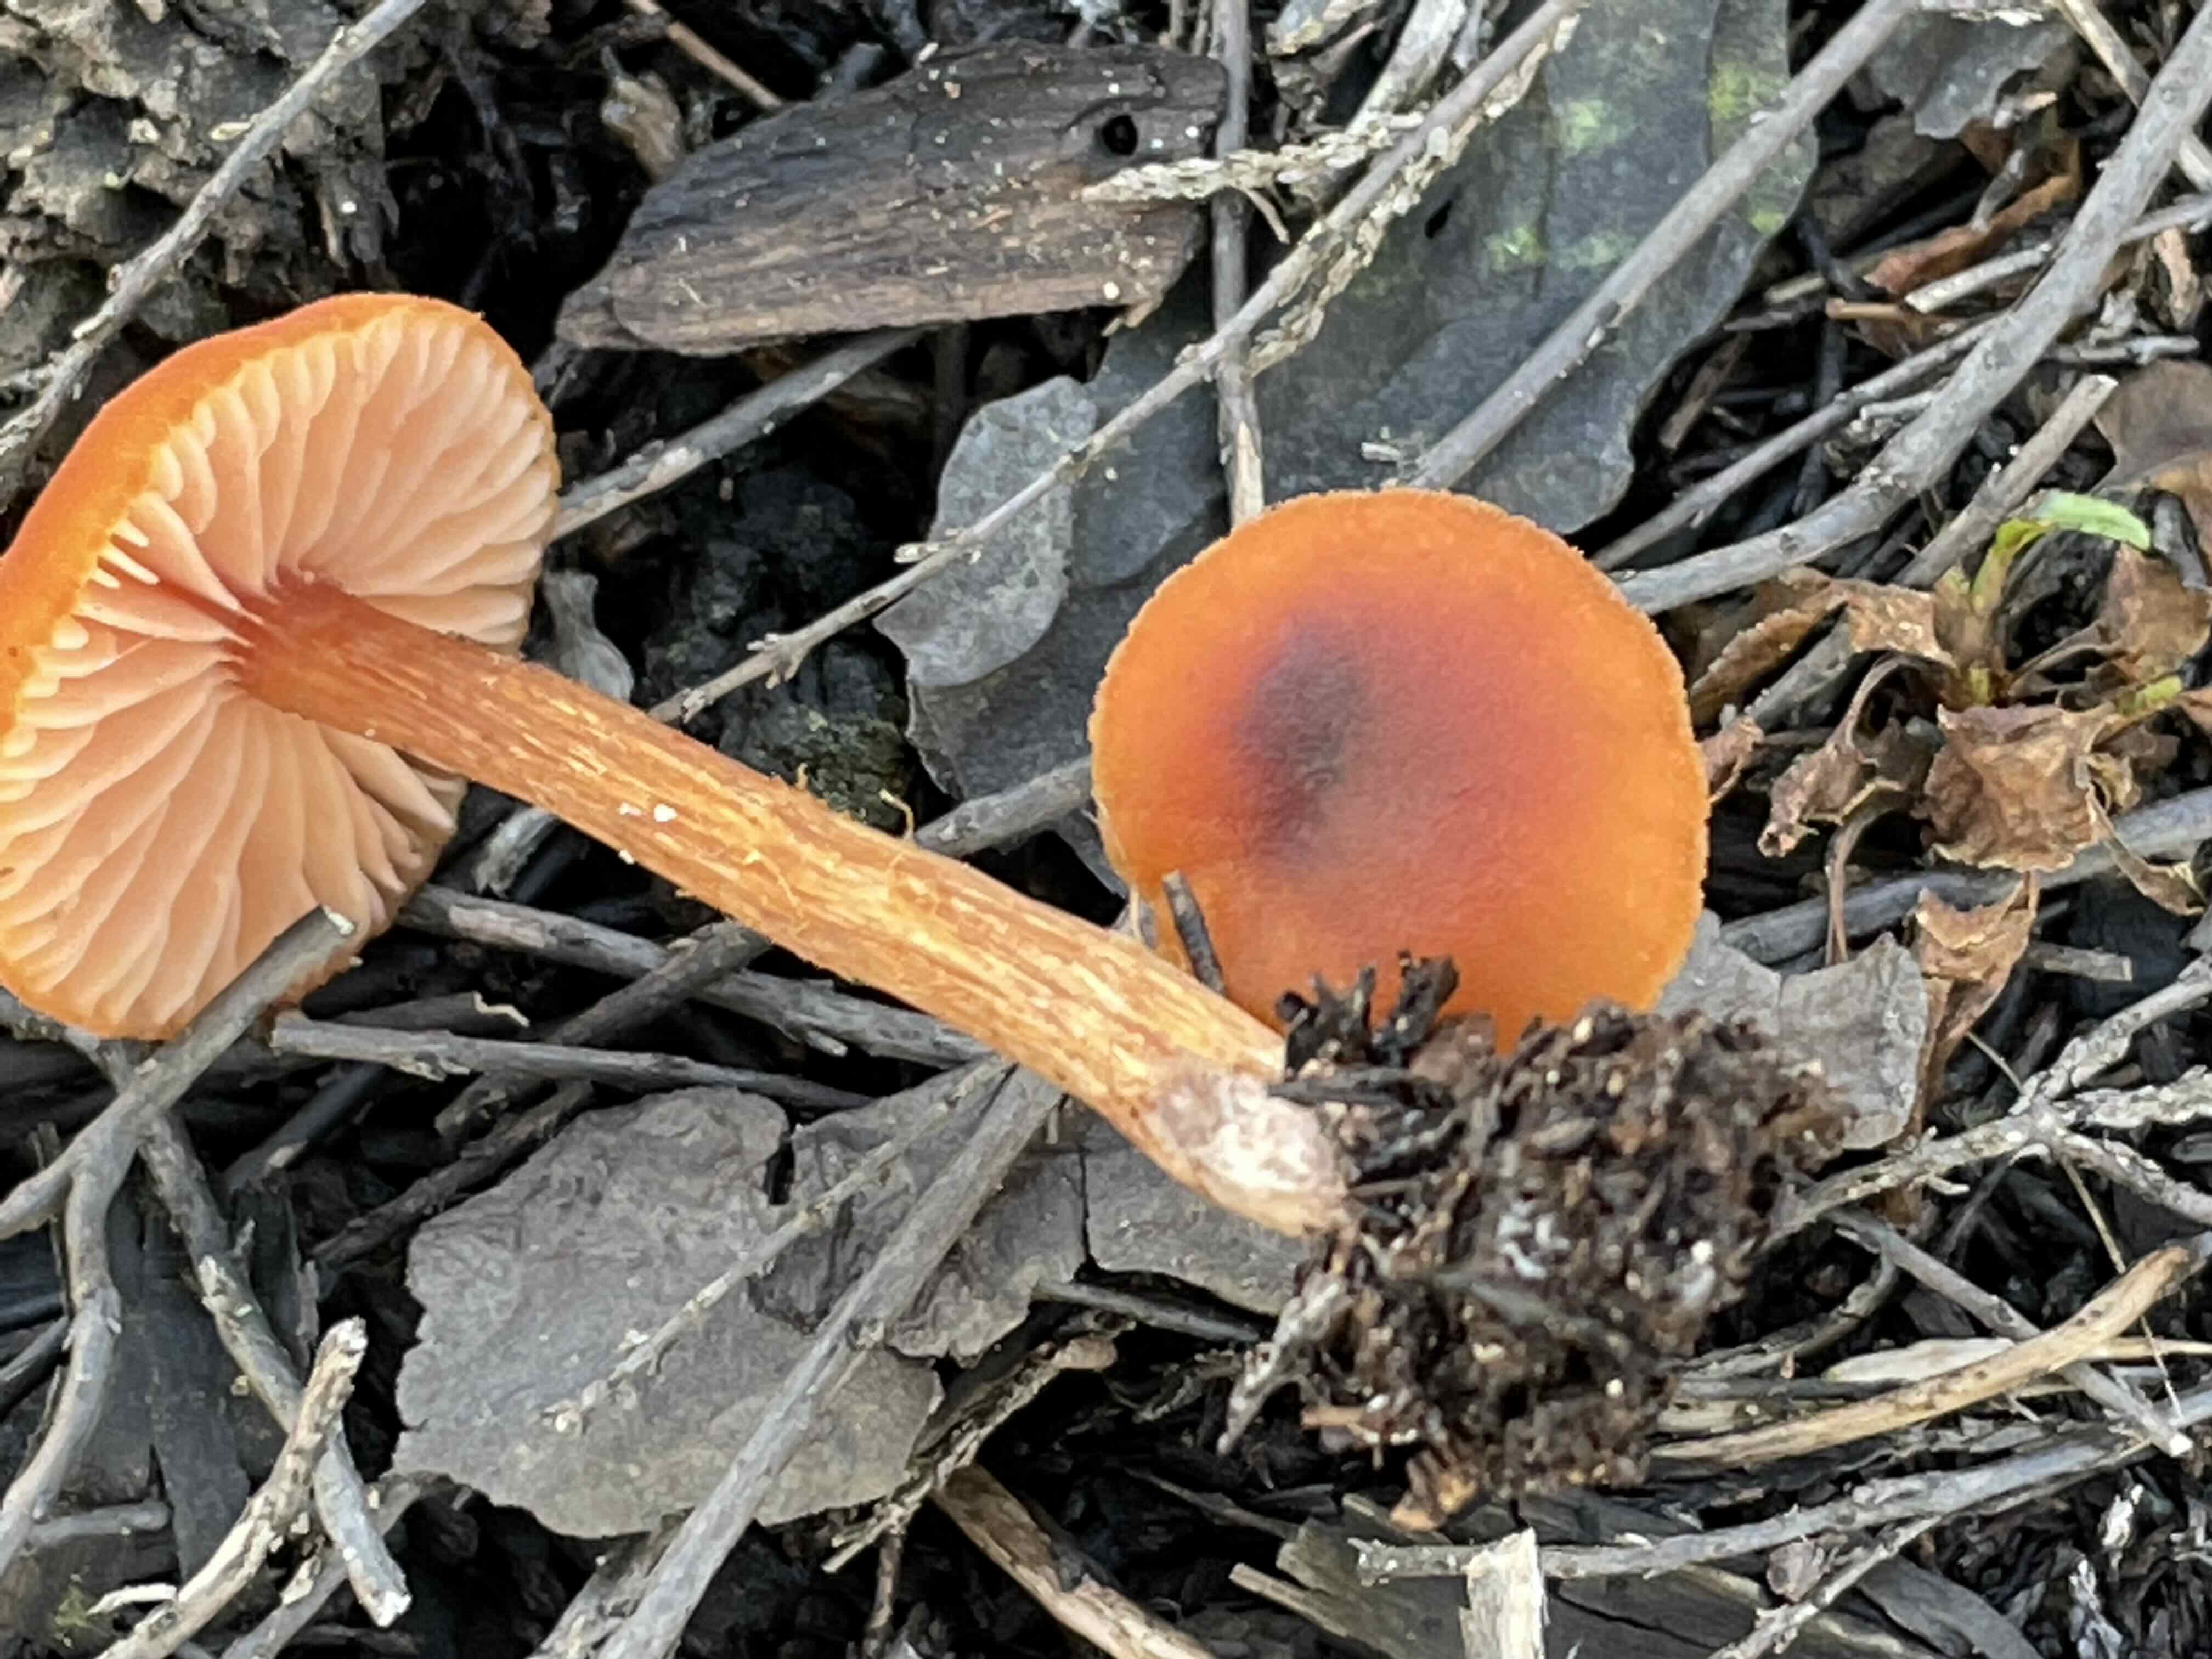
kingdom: Fungi
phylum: Basidiomycota
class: Agaricomycetes
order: Agaricales
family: Hydnangiaceae
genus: Laccaria
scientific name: Laccaria proxima
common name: stor ametysthat
